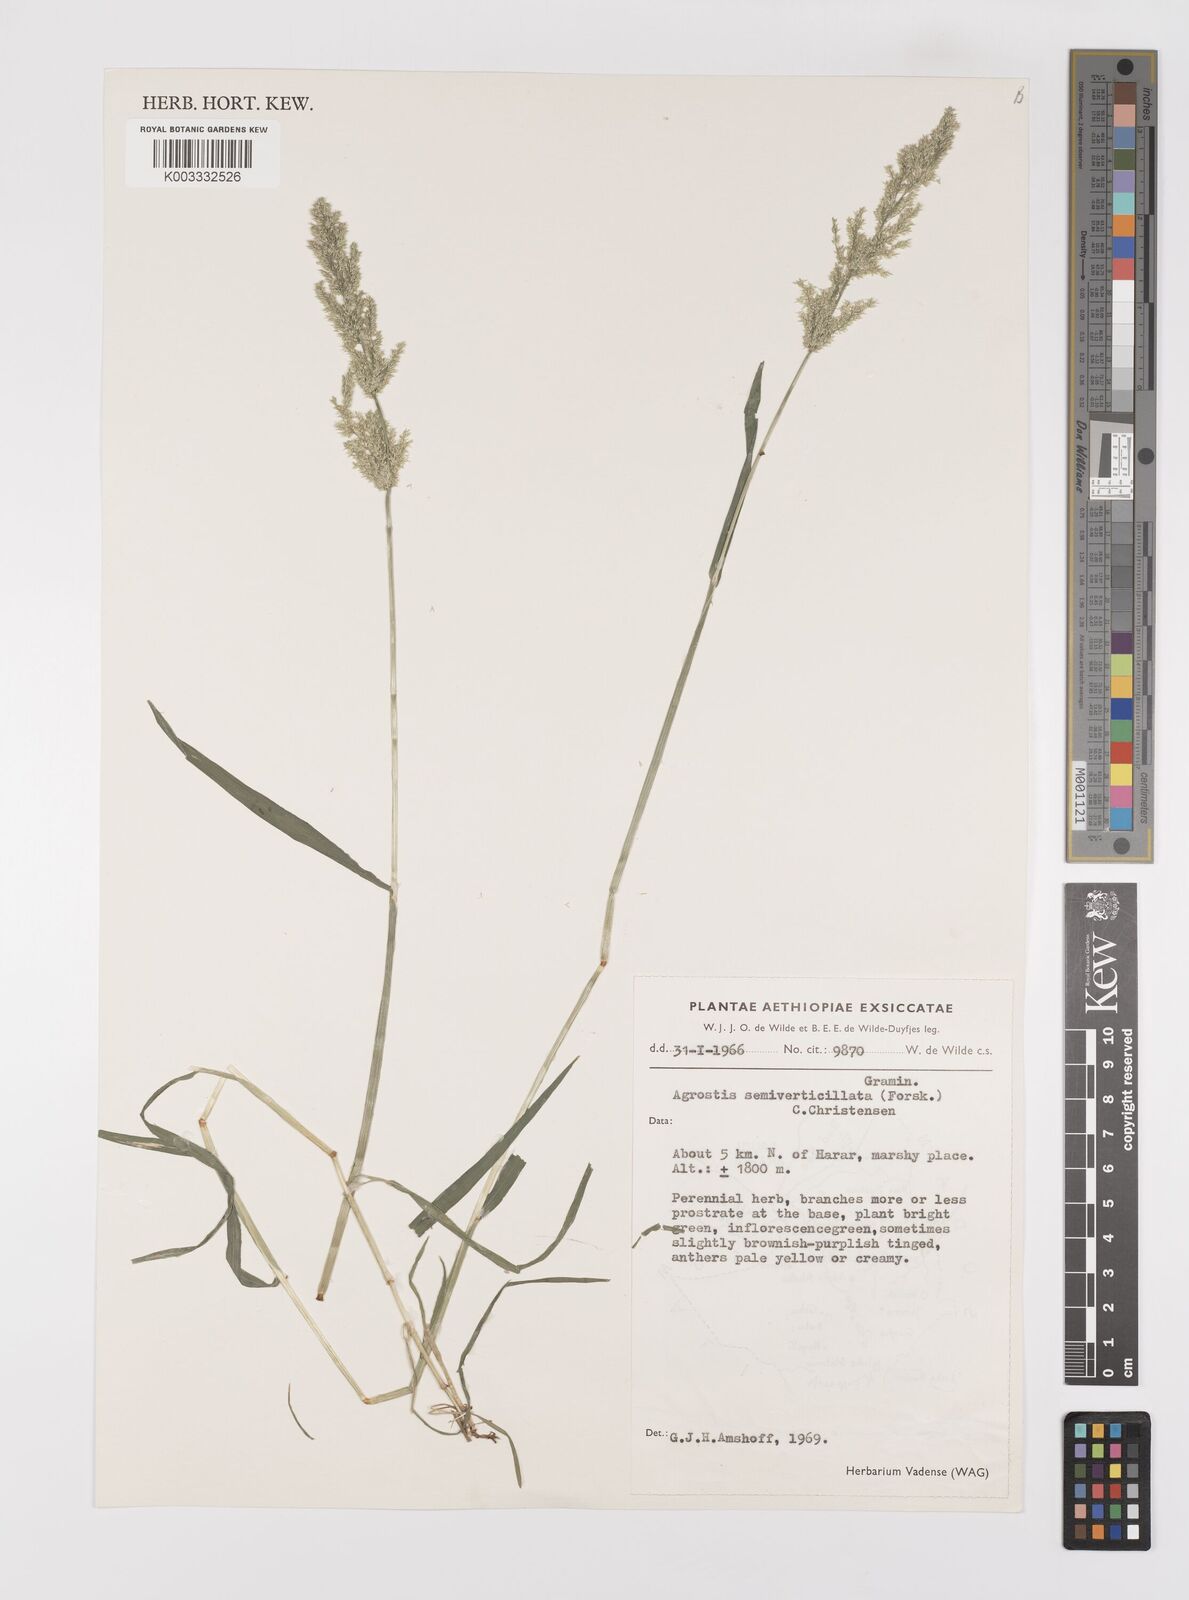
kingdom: Plantae
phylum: Tracheophyta
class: Liliopsida
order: Poales
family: Poaceae
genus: Polypogon
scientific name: Polypogon viridis
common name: Water bent
